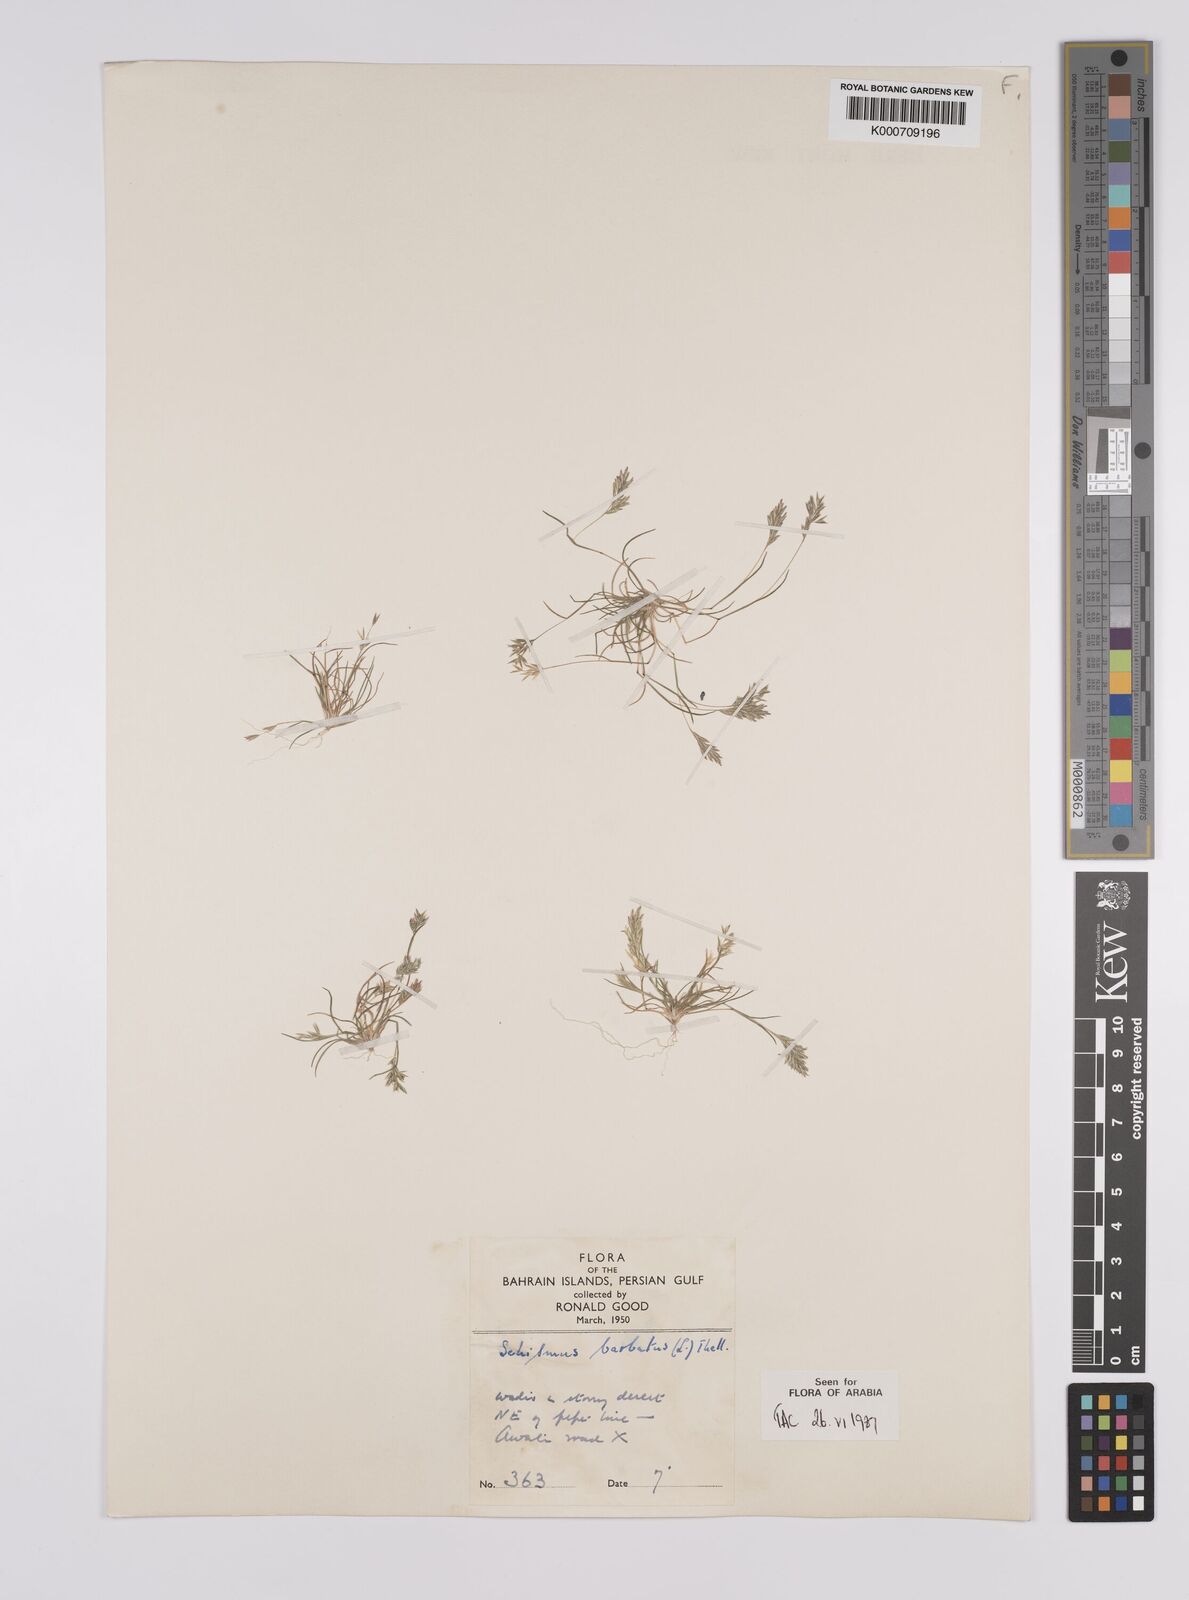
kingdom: Plantae
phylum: Tracheophyta
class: Liliopsida
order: Poales
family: Poaceae
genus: Schismus
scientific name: Schismus barbatus
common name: Kelch-grass
